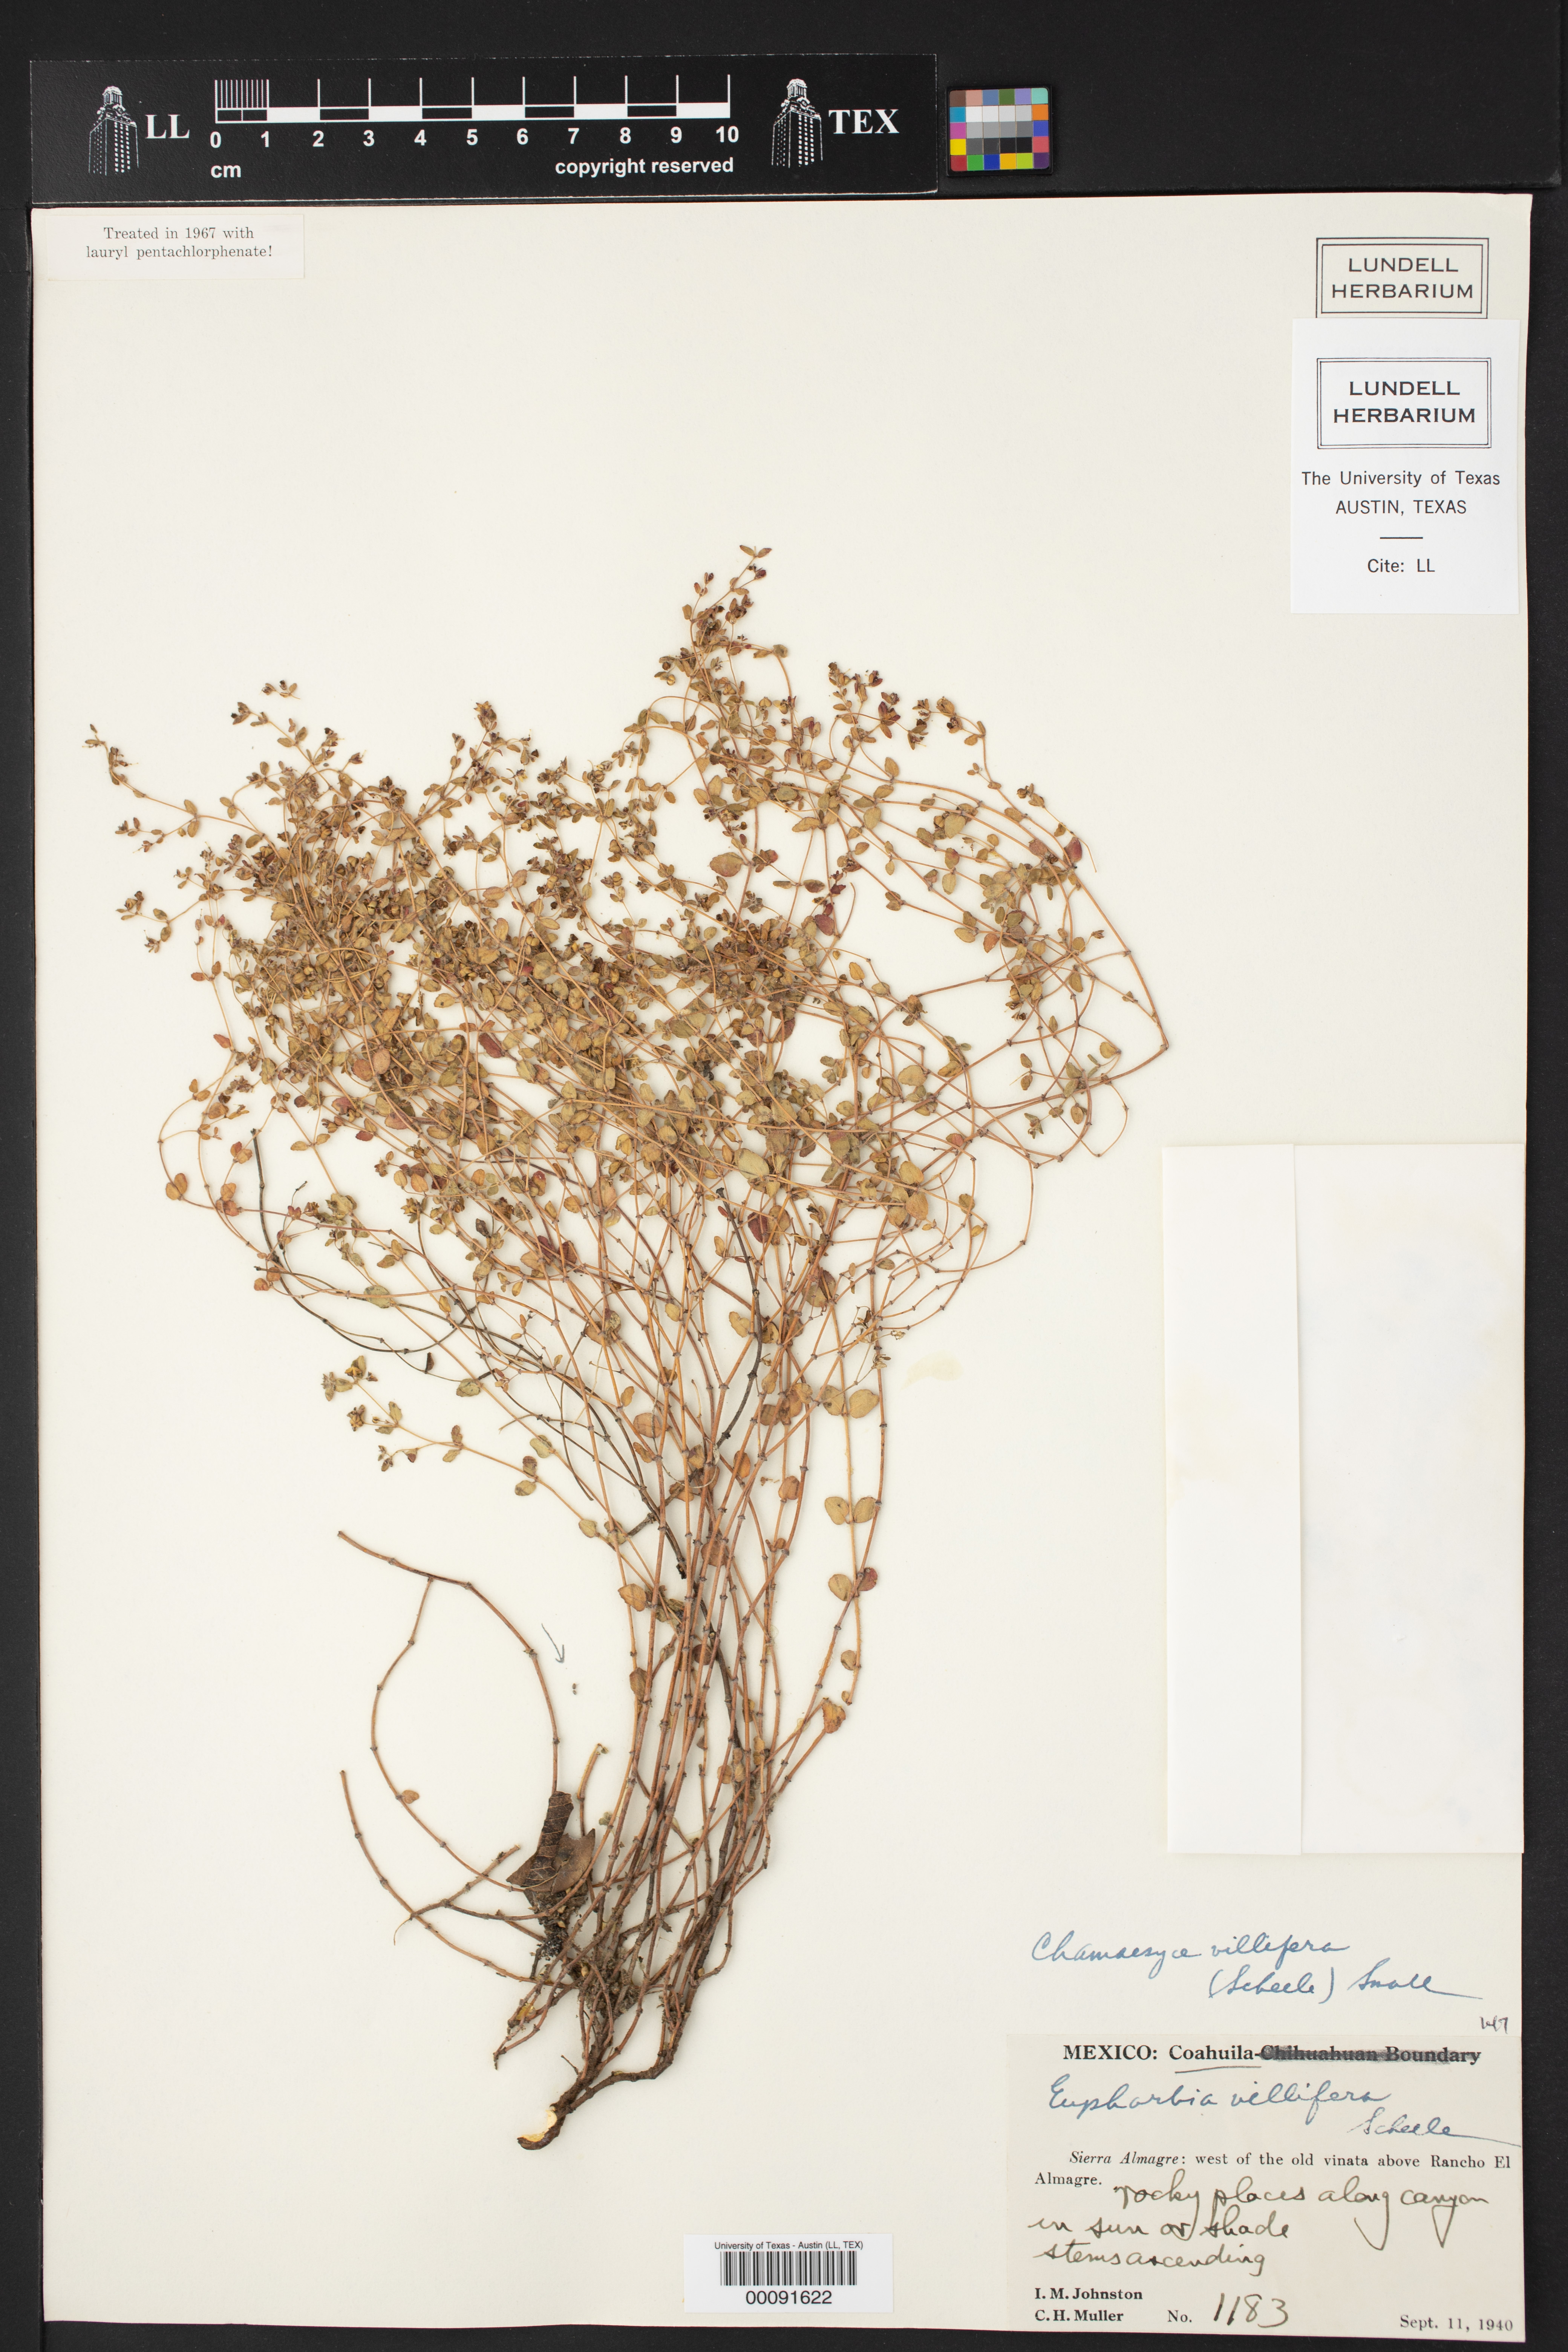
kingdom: Plantae
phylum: Tracheophyta
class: Magnoliopsida
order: Malpighiales
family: Euphorbiaceae
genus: Euphorbia
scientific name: Euphorbia villifera
